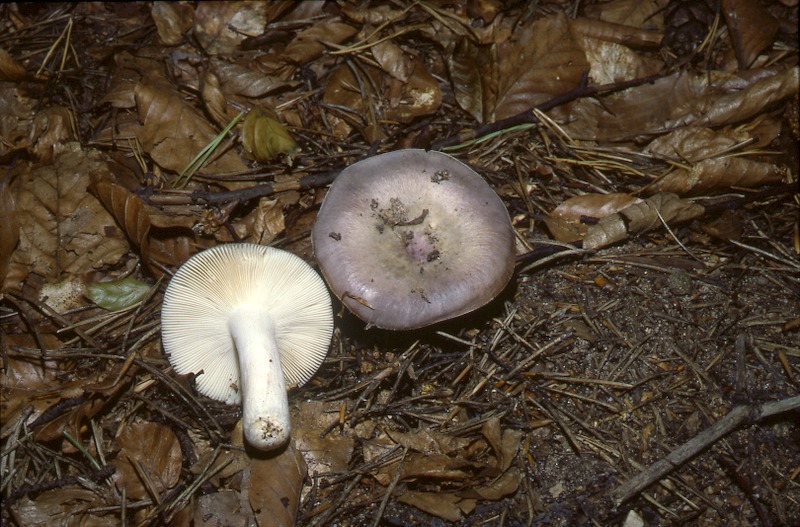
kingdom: Fungi
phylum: Basidiomycota
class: Agaricomycetes
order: Russulales
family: Russulaceae
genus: Russula
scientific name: Russula grisea
